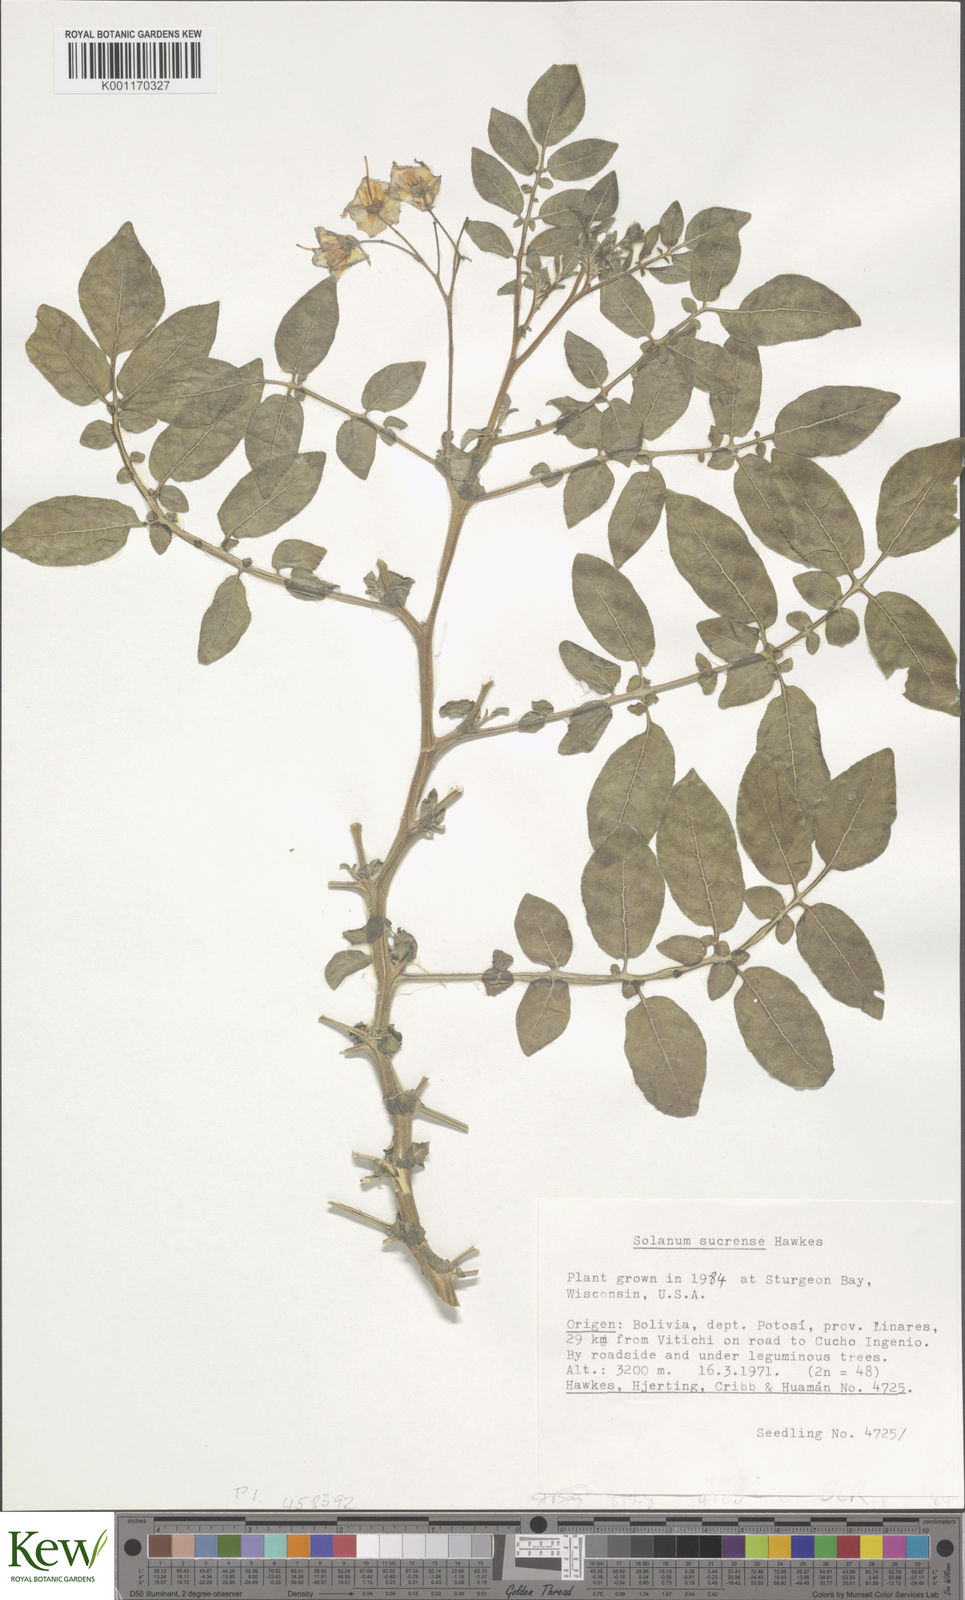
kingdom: Plantae
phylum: Tracheophyta
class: Magnoliopsida
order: Solanales
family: Solanaceae
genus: Solanum
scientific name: Solanum brevicaule
